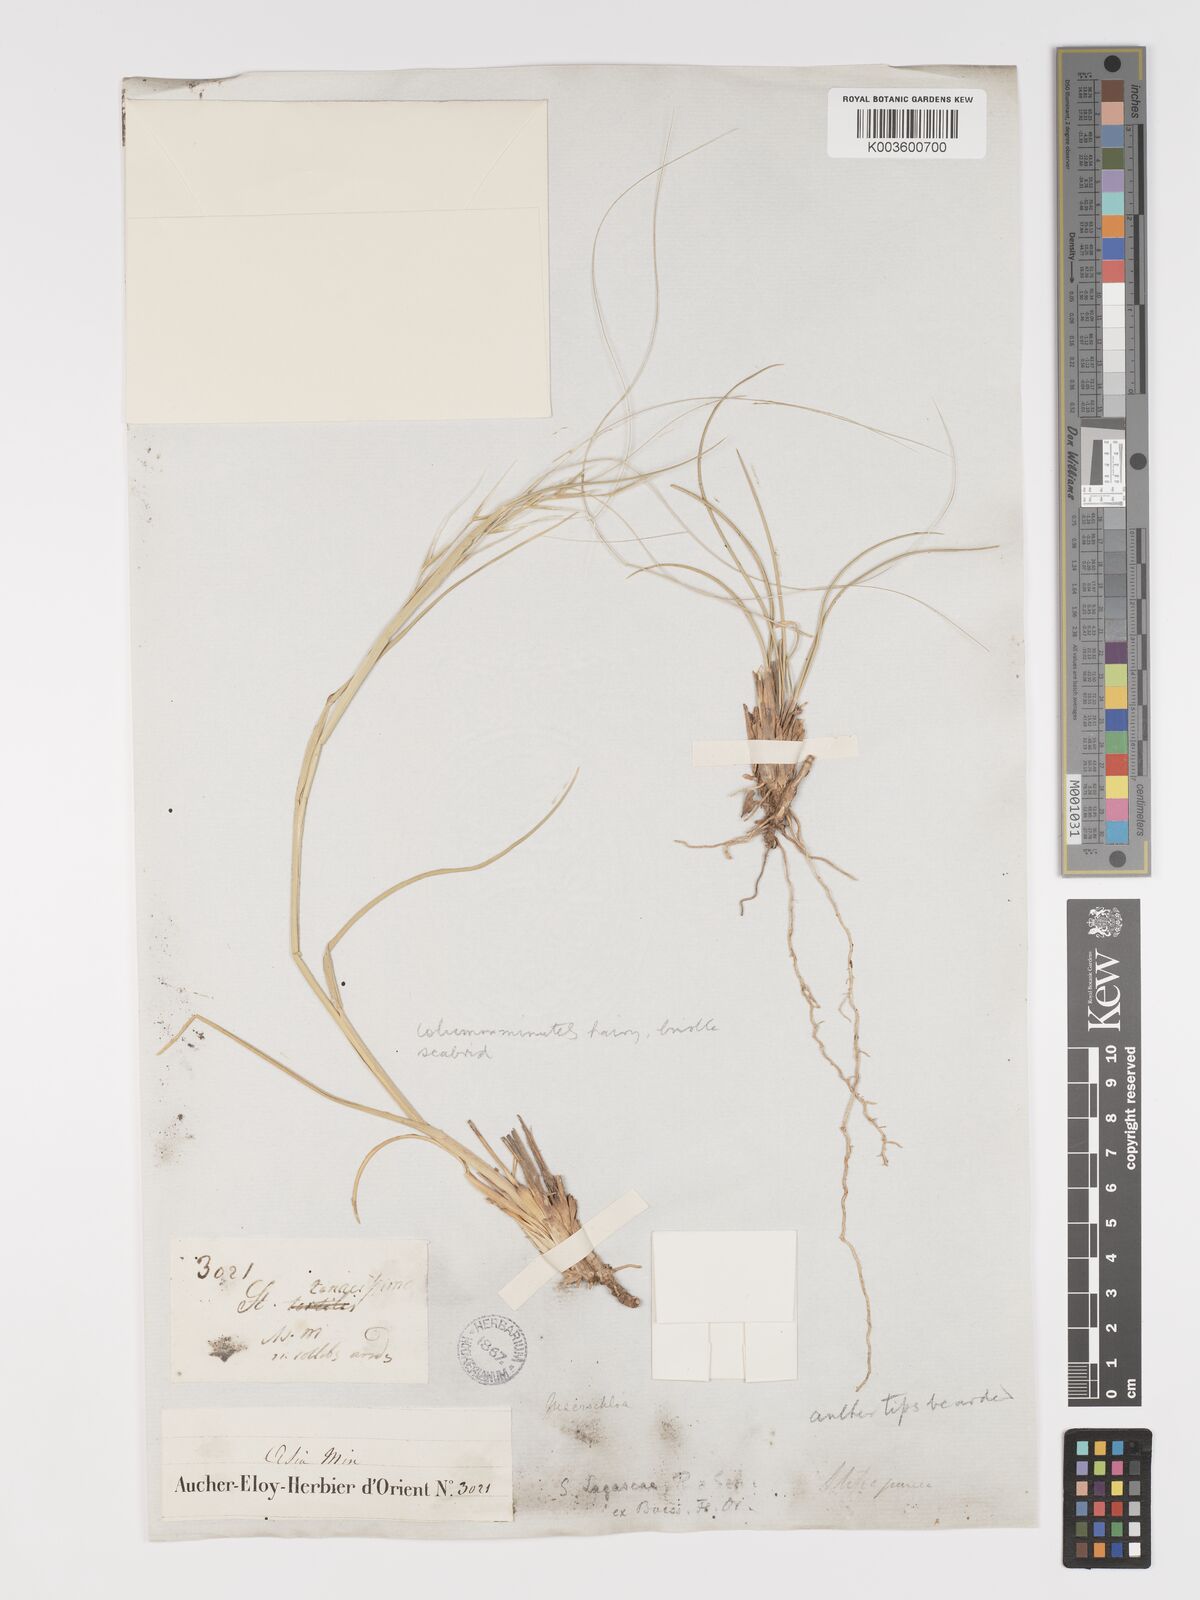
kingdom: Plantae
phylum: Tracheophyta
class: Liliopsida
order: Poales
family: Poaceae
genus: Stipa
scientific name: Stipa holosericea
